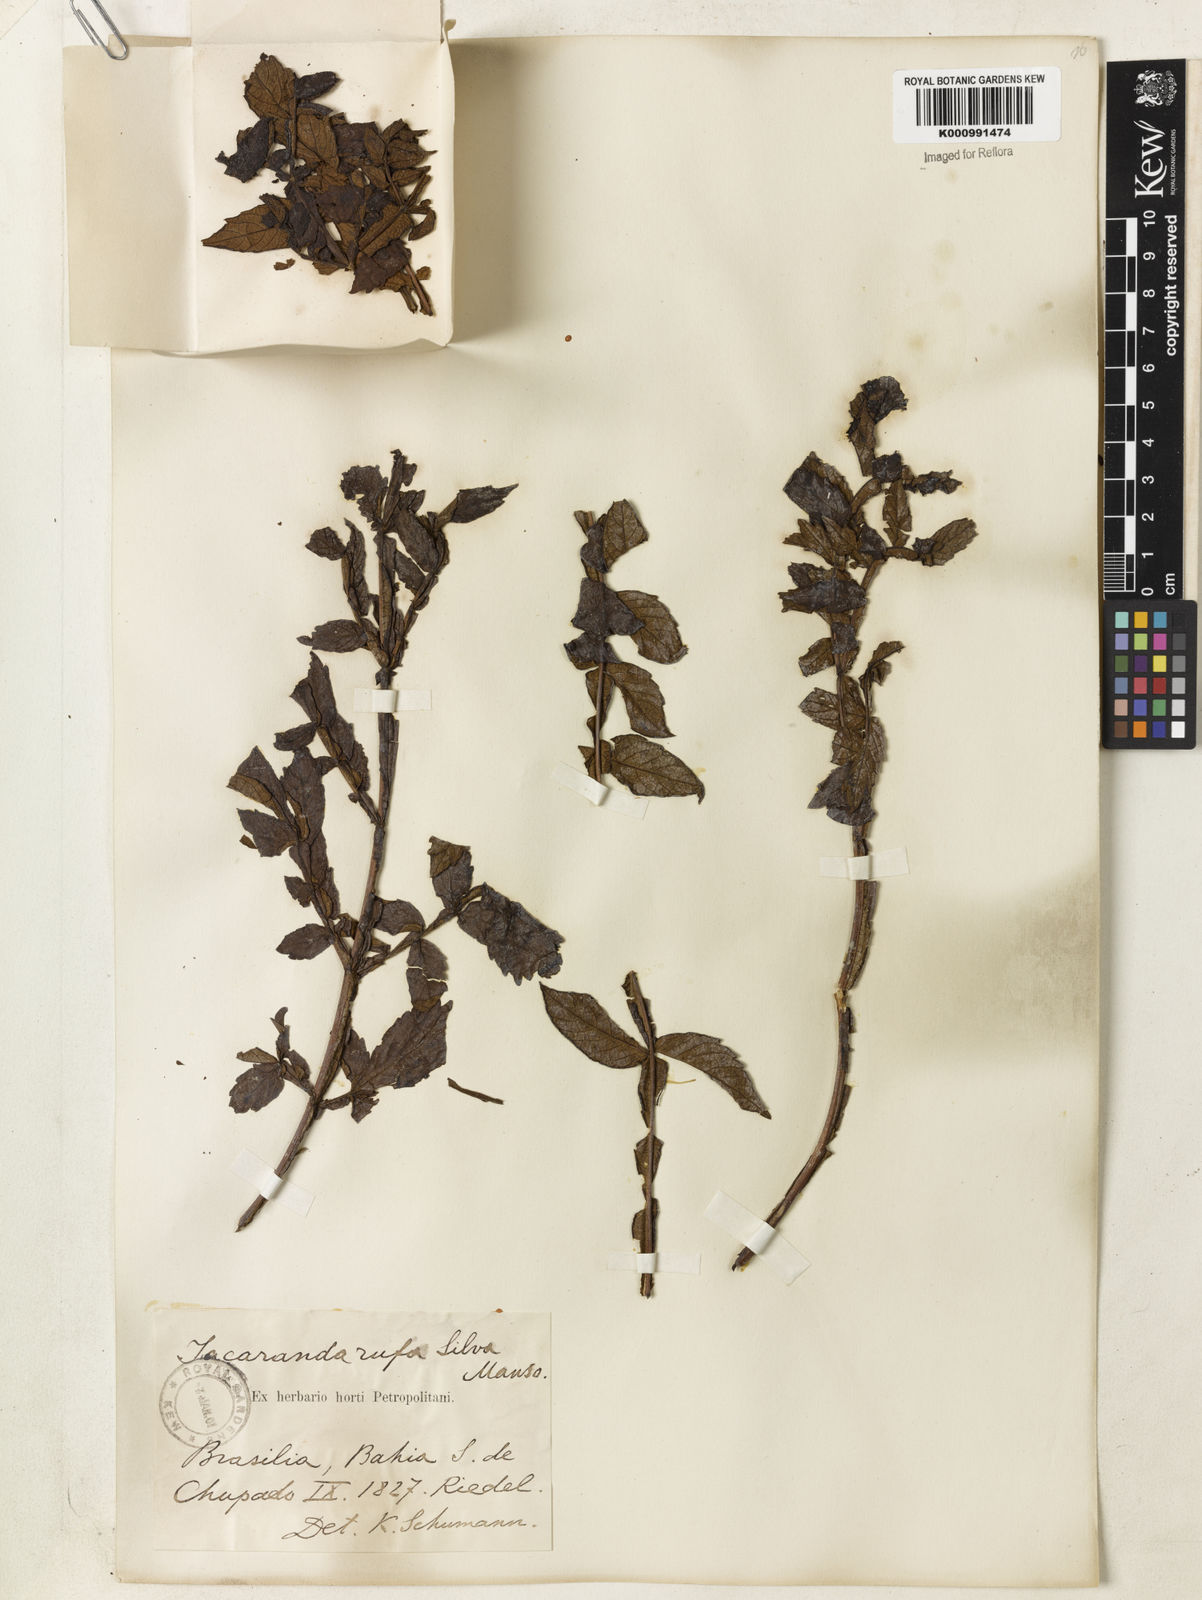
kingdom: Plantae
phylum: Tracheophyta
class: Magnoliopsida
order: Lamiales
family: Bignoniaceae
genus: Jacaranda
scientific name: Jacaranda rufa
